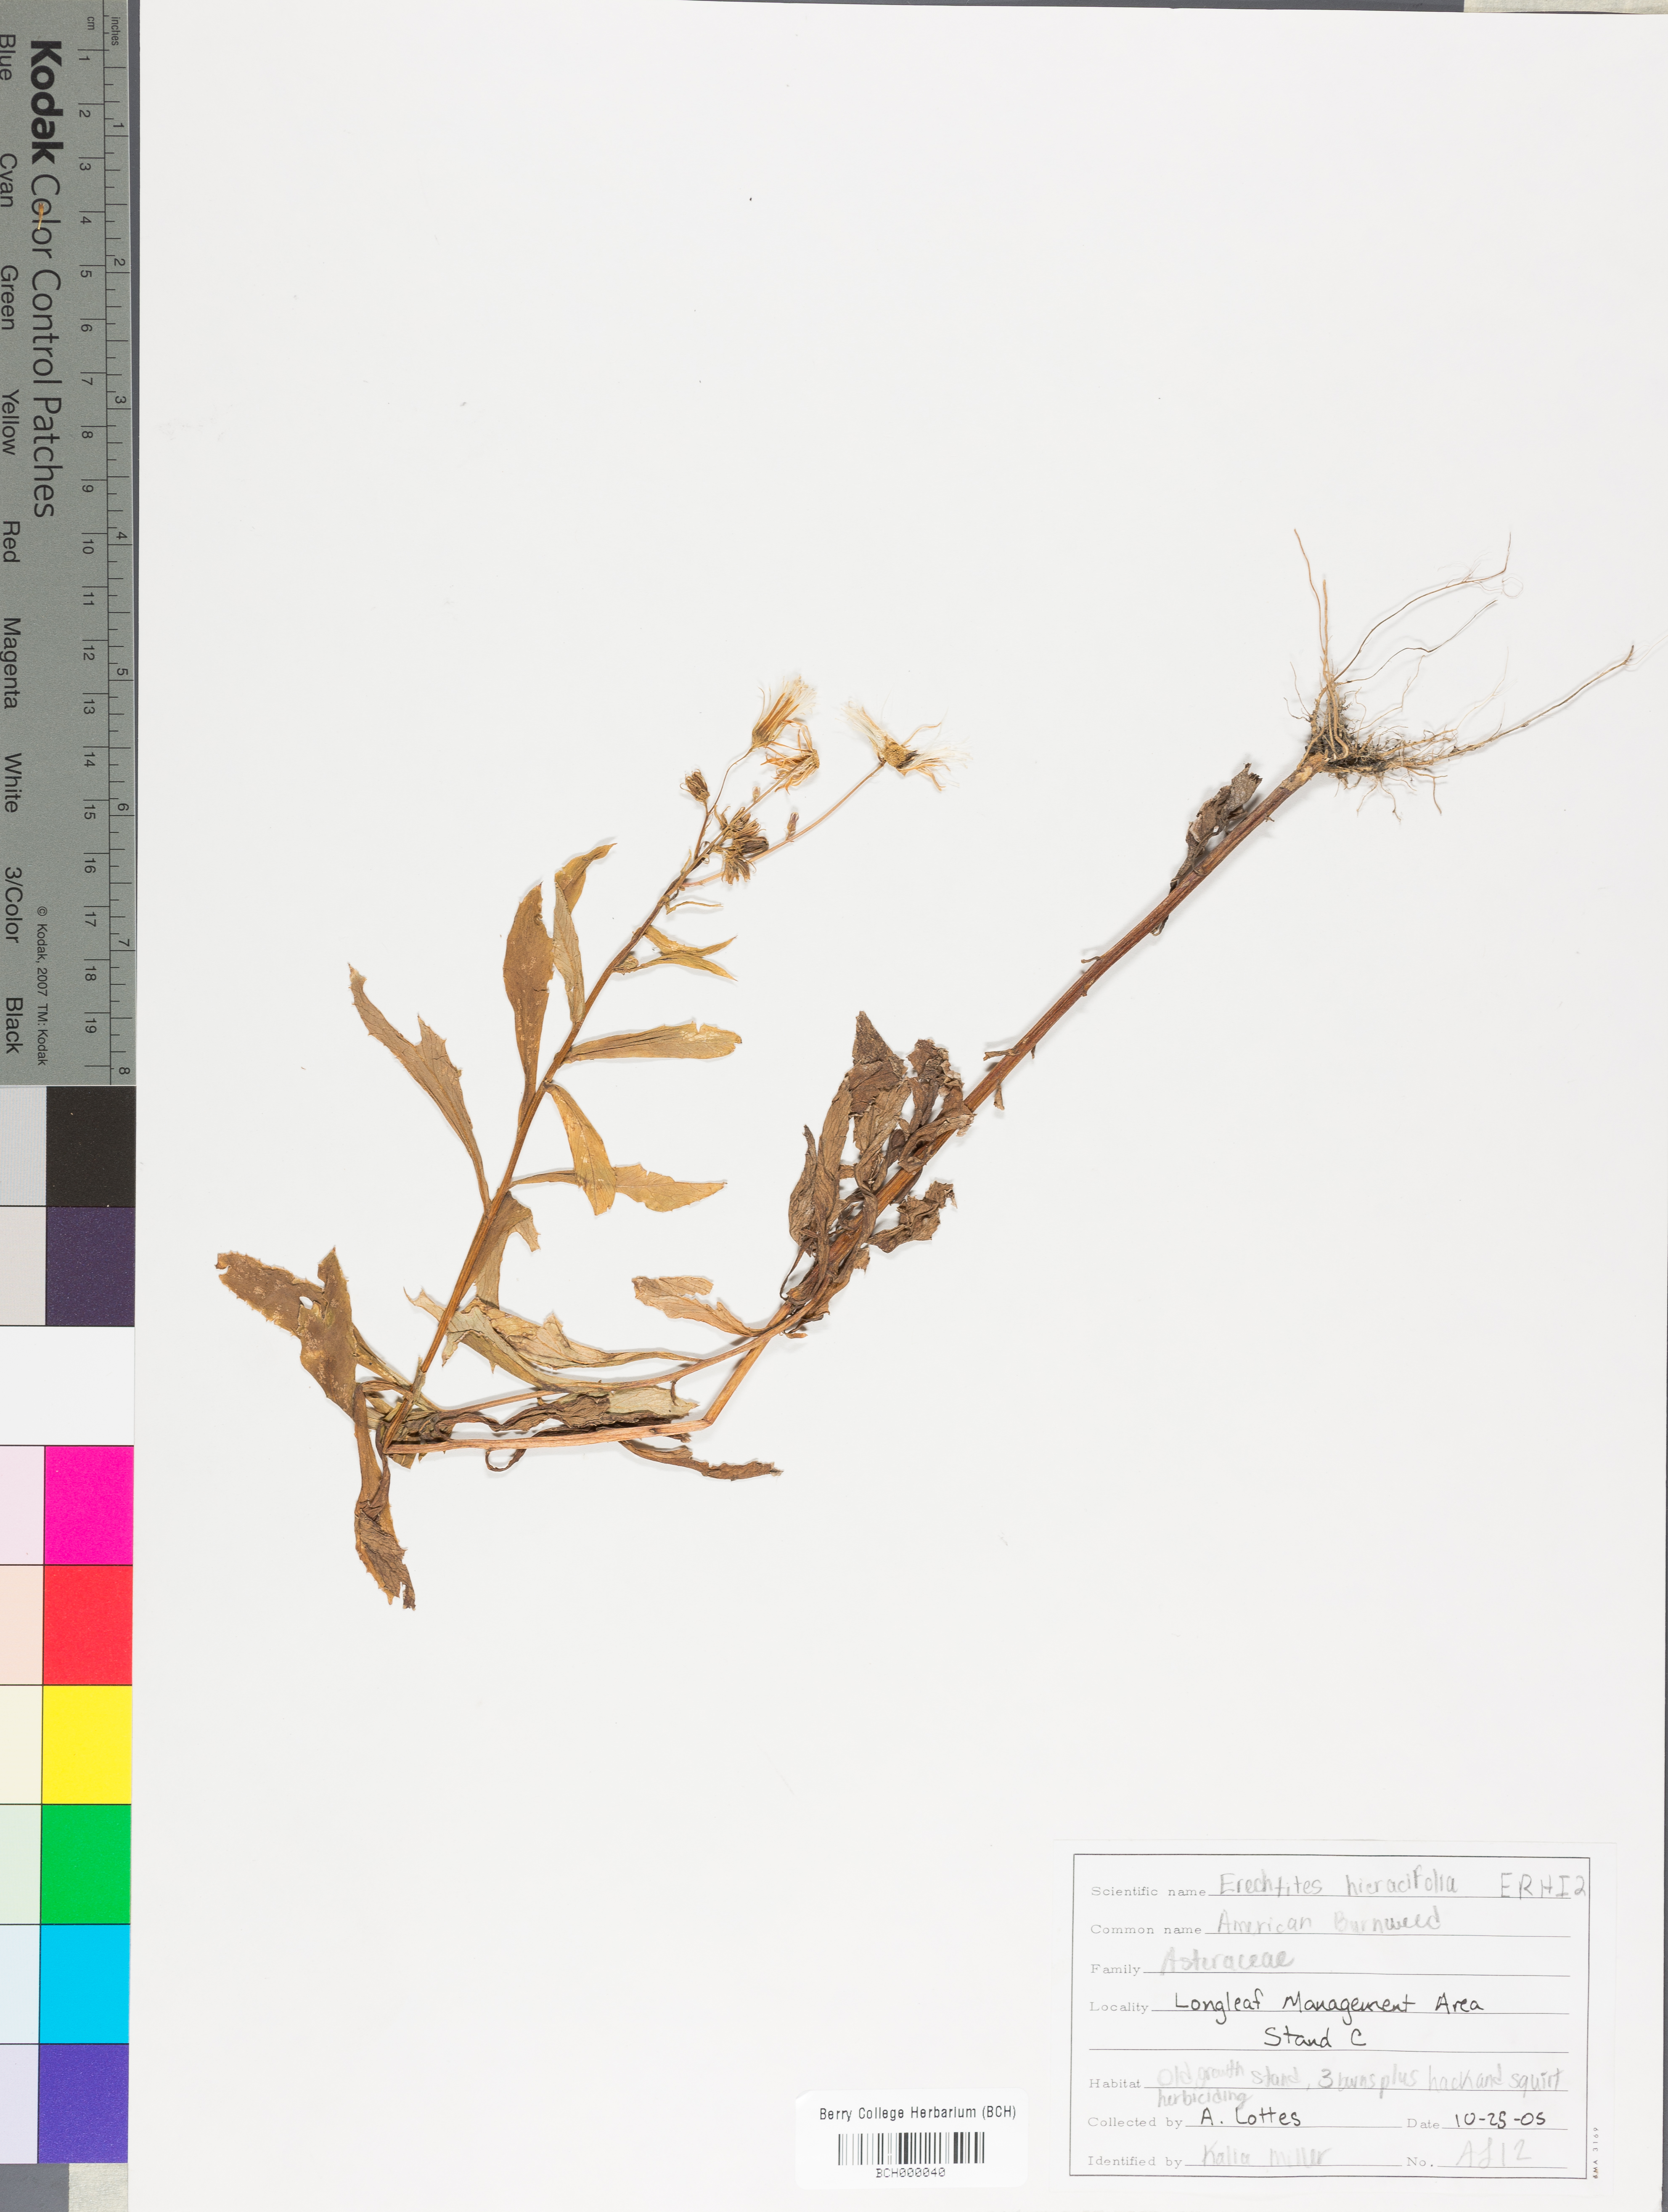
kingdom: Plantae
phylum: Tracheophyta
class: Magnoliopsida
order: Asterales
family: Asteraceae
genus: Erechtites
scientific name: Erechtites hieraciifolius
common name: American burnweed
